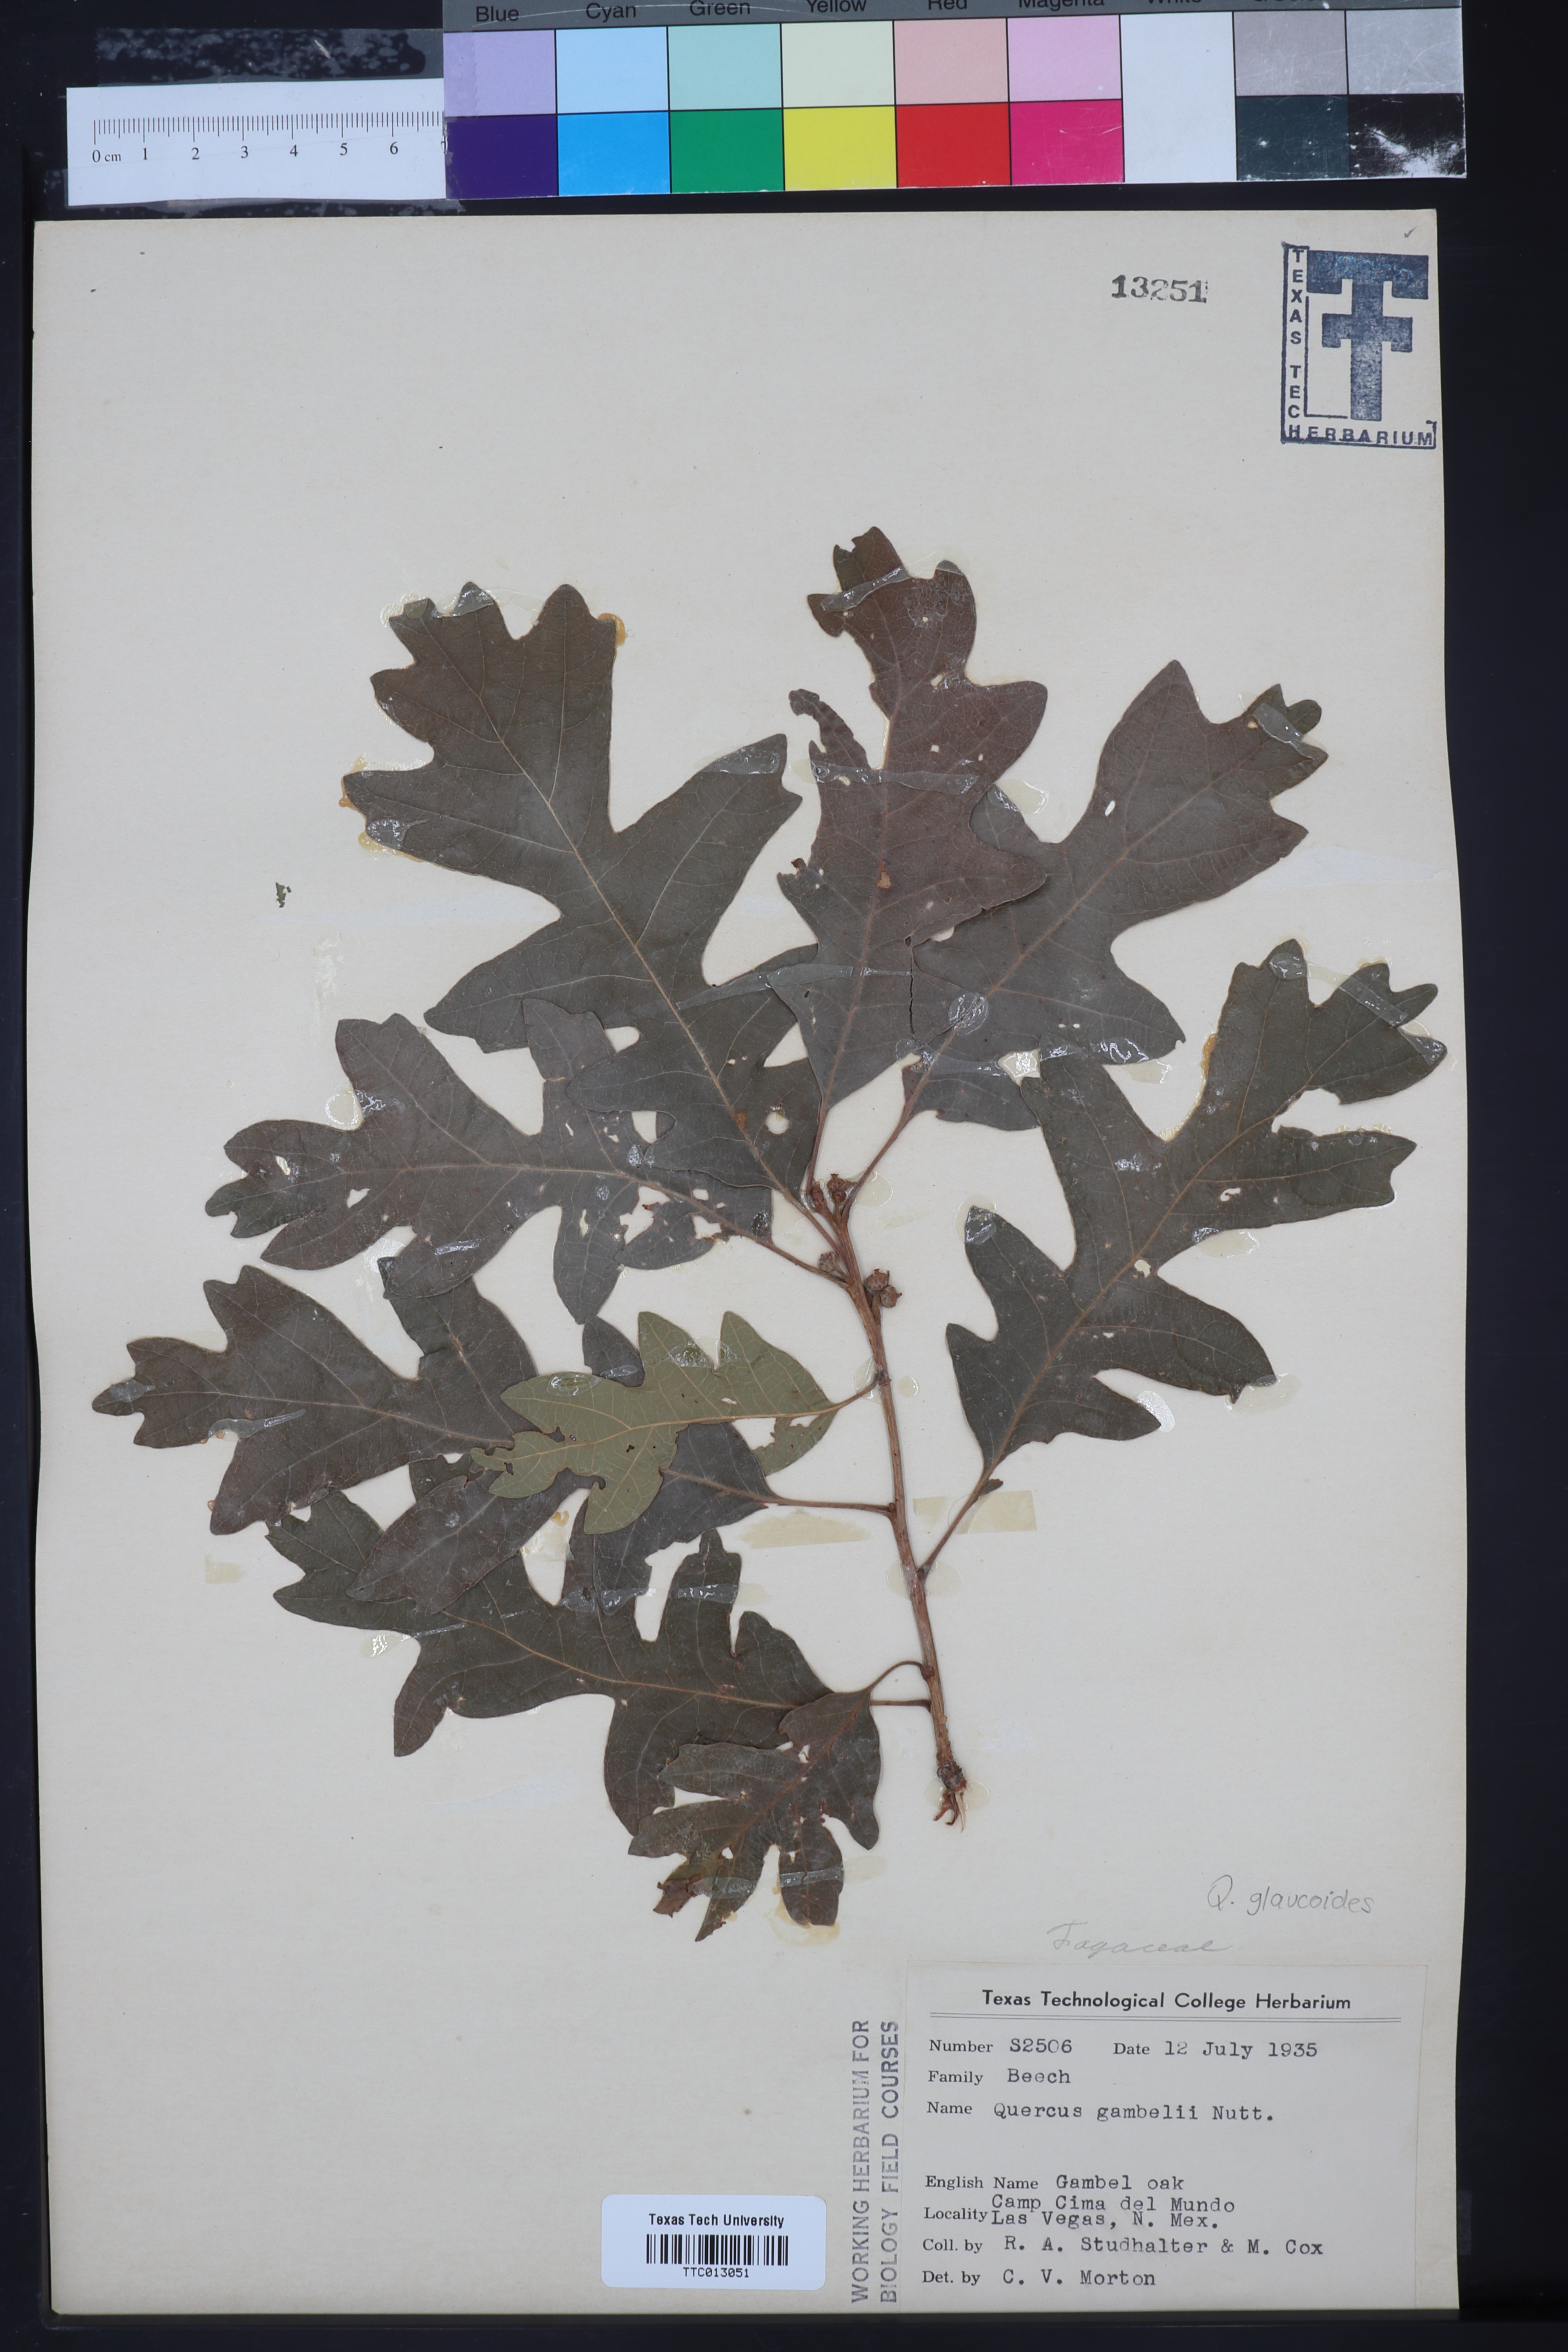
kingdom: Plantae
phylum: Tracheophyta
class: Magnoliopsida
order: Fagales
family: Fagaceae
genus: Quercus
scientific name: Quercus gambelii
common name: Gambel oak
